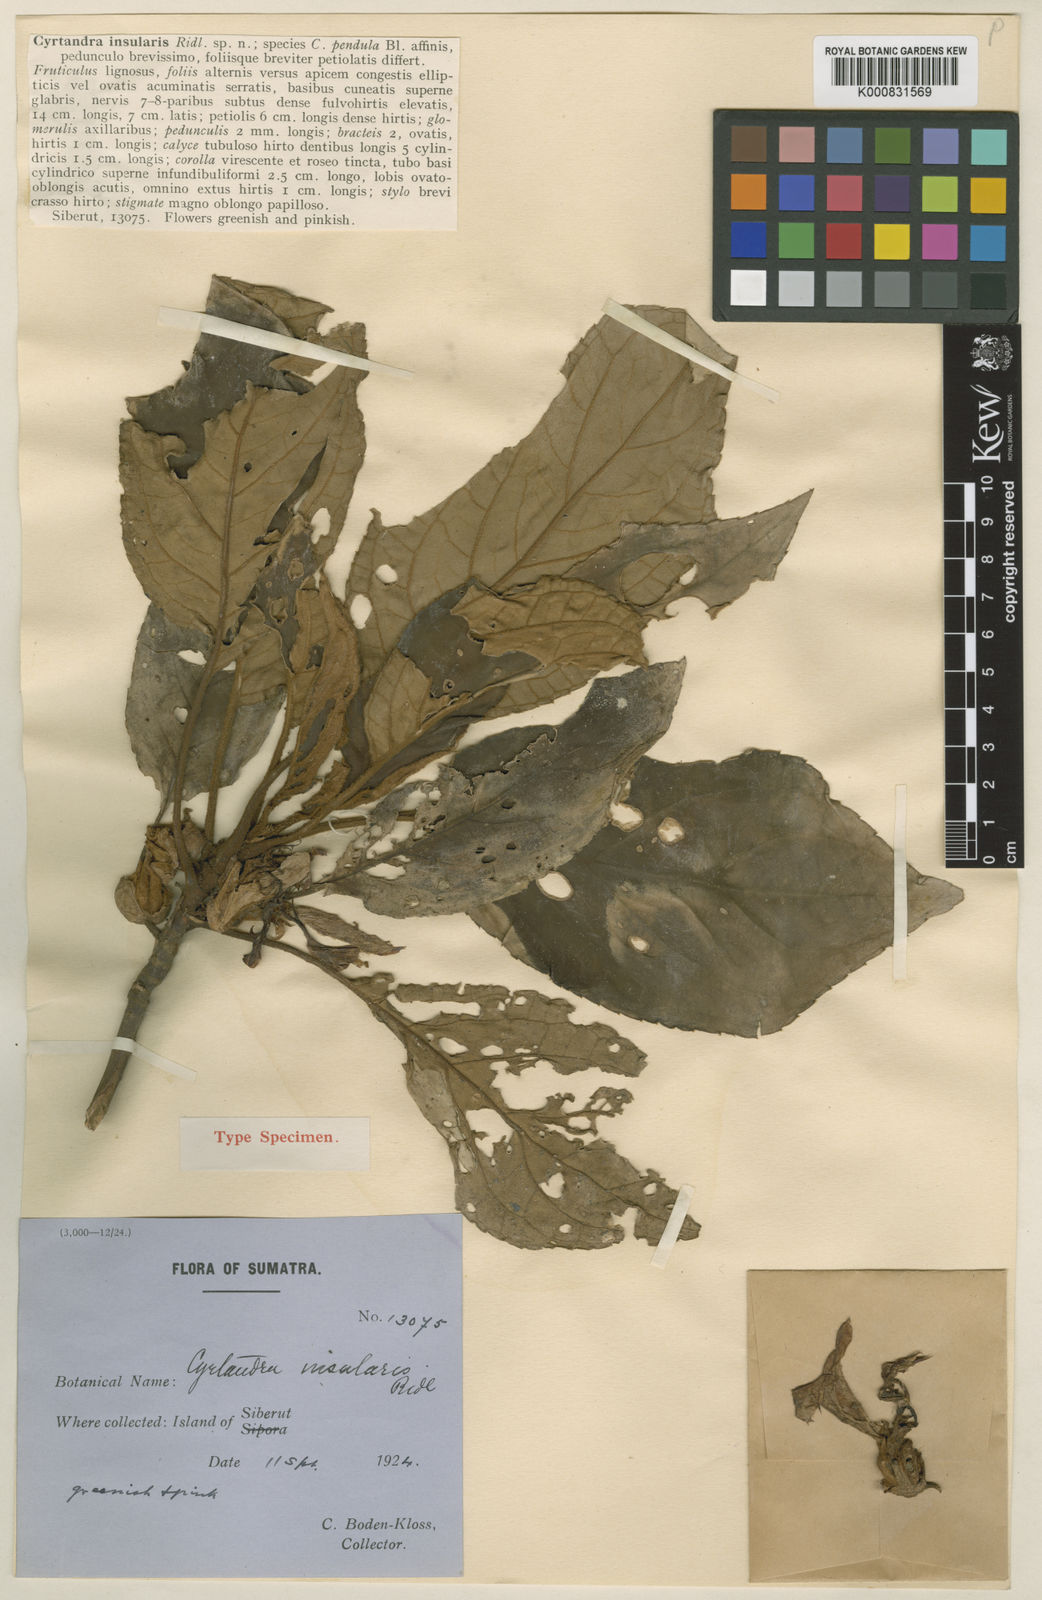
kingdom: Plantae
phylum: Tracheophyta
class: Magnoliopsida
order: Lamiales
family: Gesneriaceae
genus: Cyrtandra
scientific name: Cyrtandra insularis
